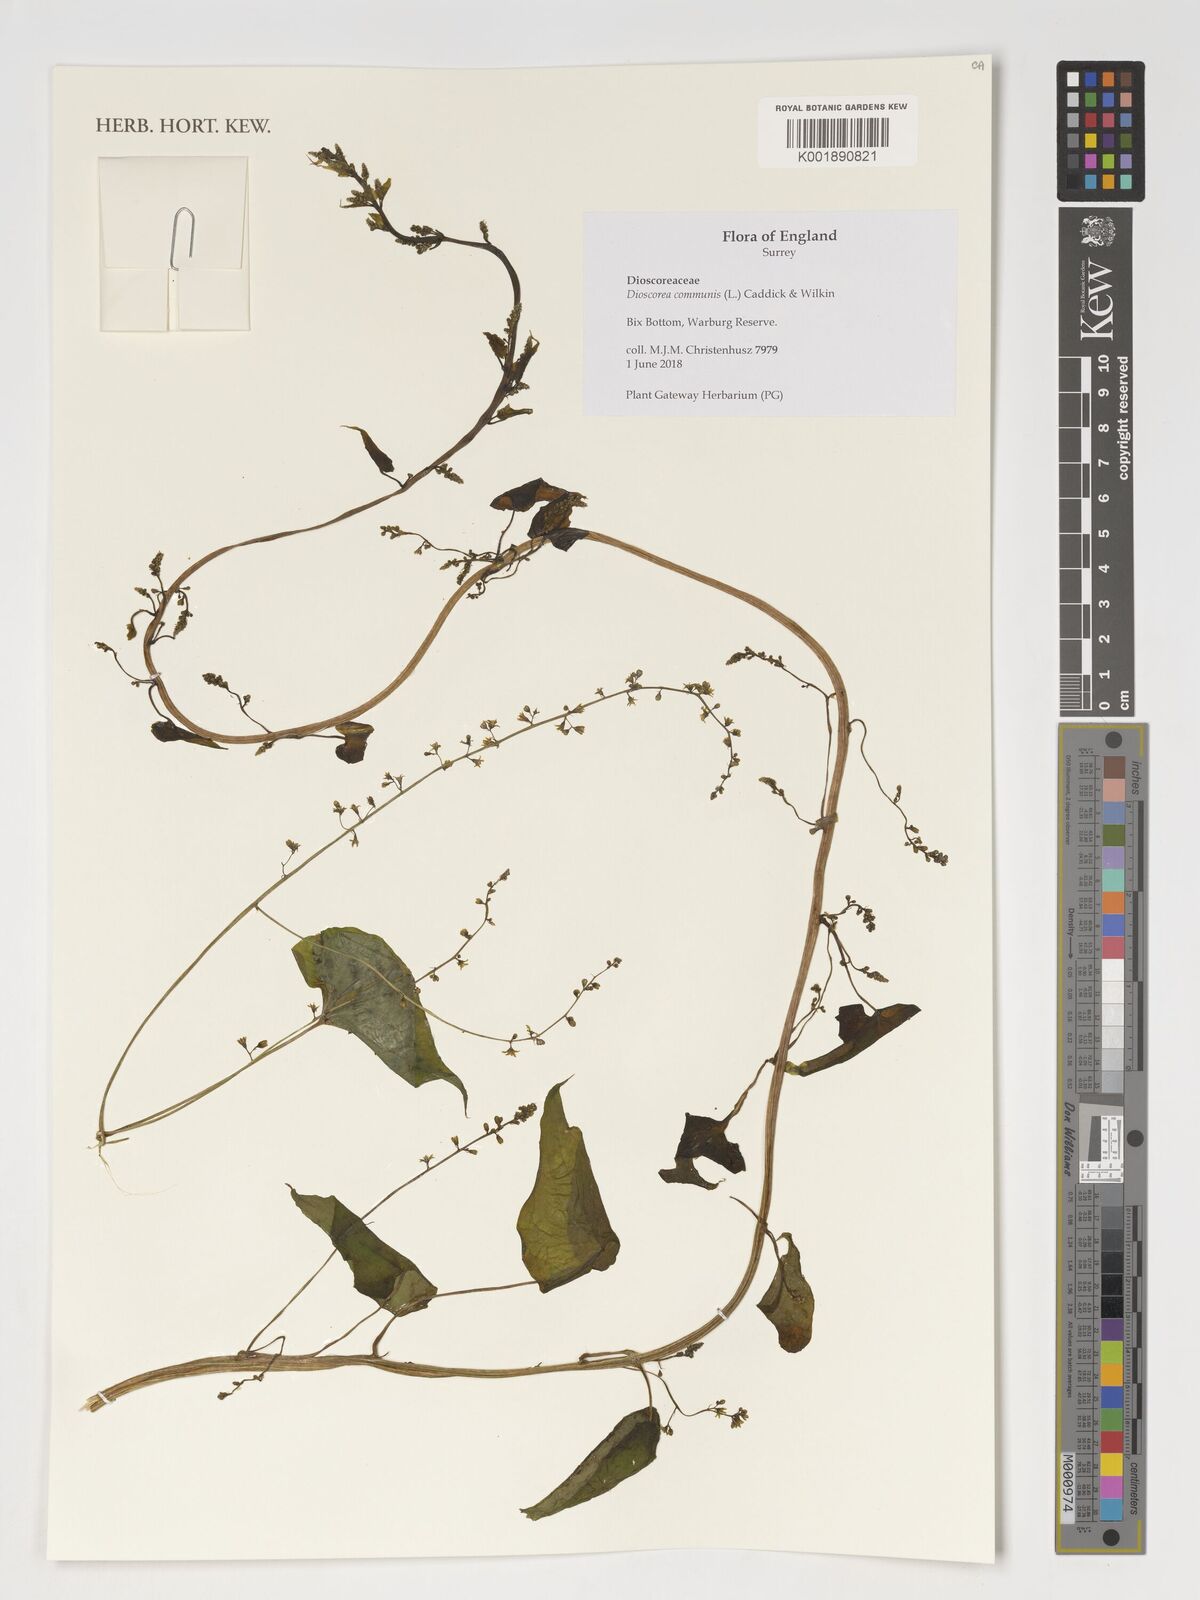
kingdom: Plantae
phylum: Tracheophyta
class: Liliopsida
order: Dioscoreales
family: Dioscoreaceae
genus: Dioscorea
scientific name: Dioscorea communis
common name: Black-bindweed
